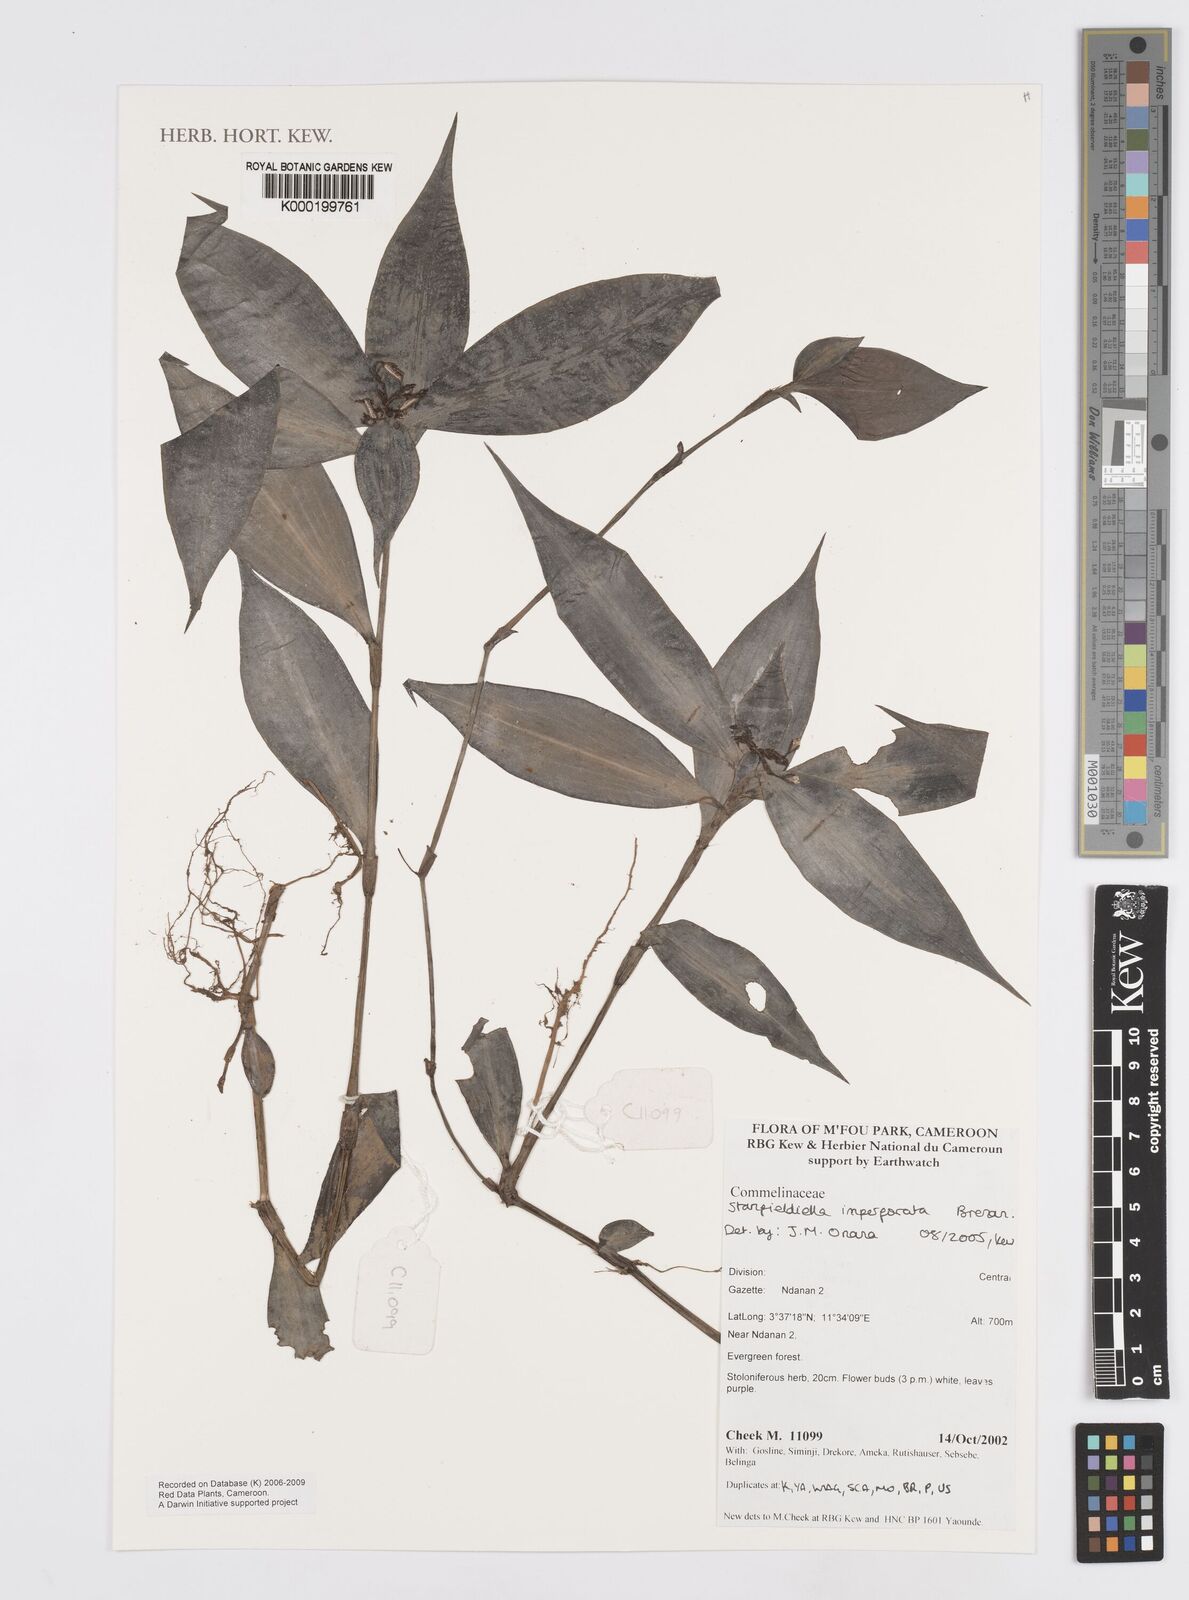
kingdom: Plantae
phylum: Tracheophyta
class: Liliopsida
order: Commelinales
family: Commelinaceae
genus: Stanfieldiella
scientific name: Stanfieldiella imperforata
